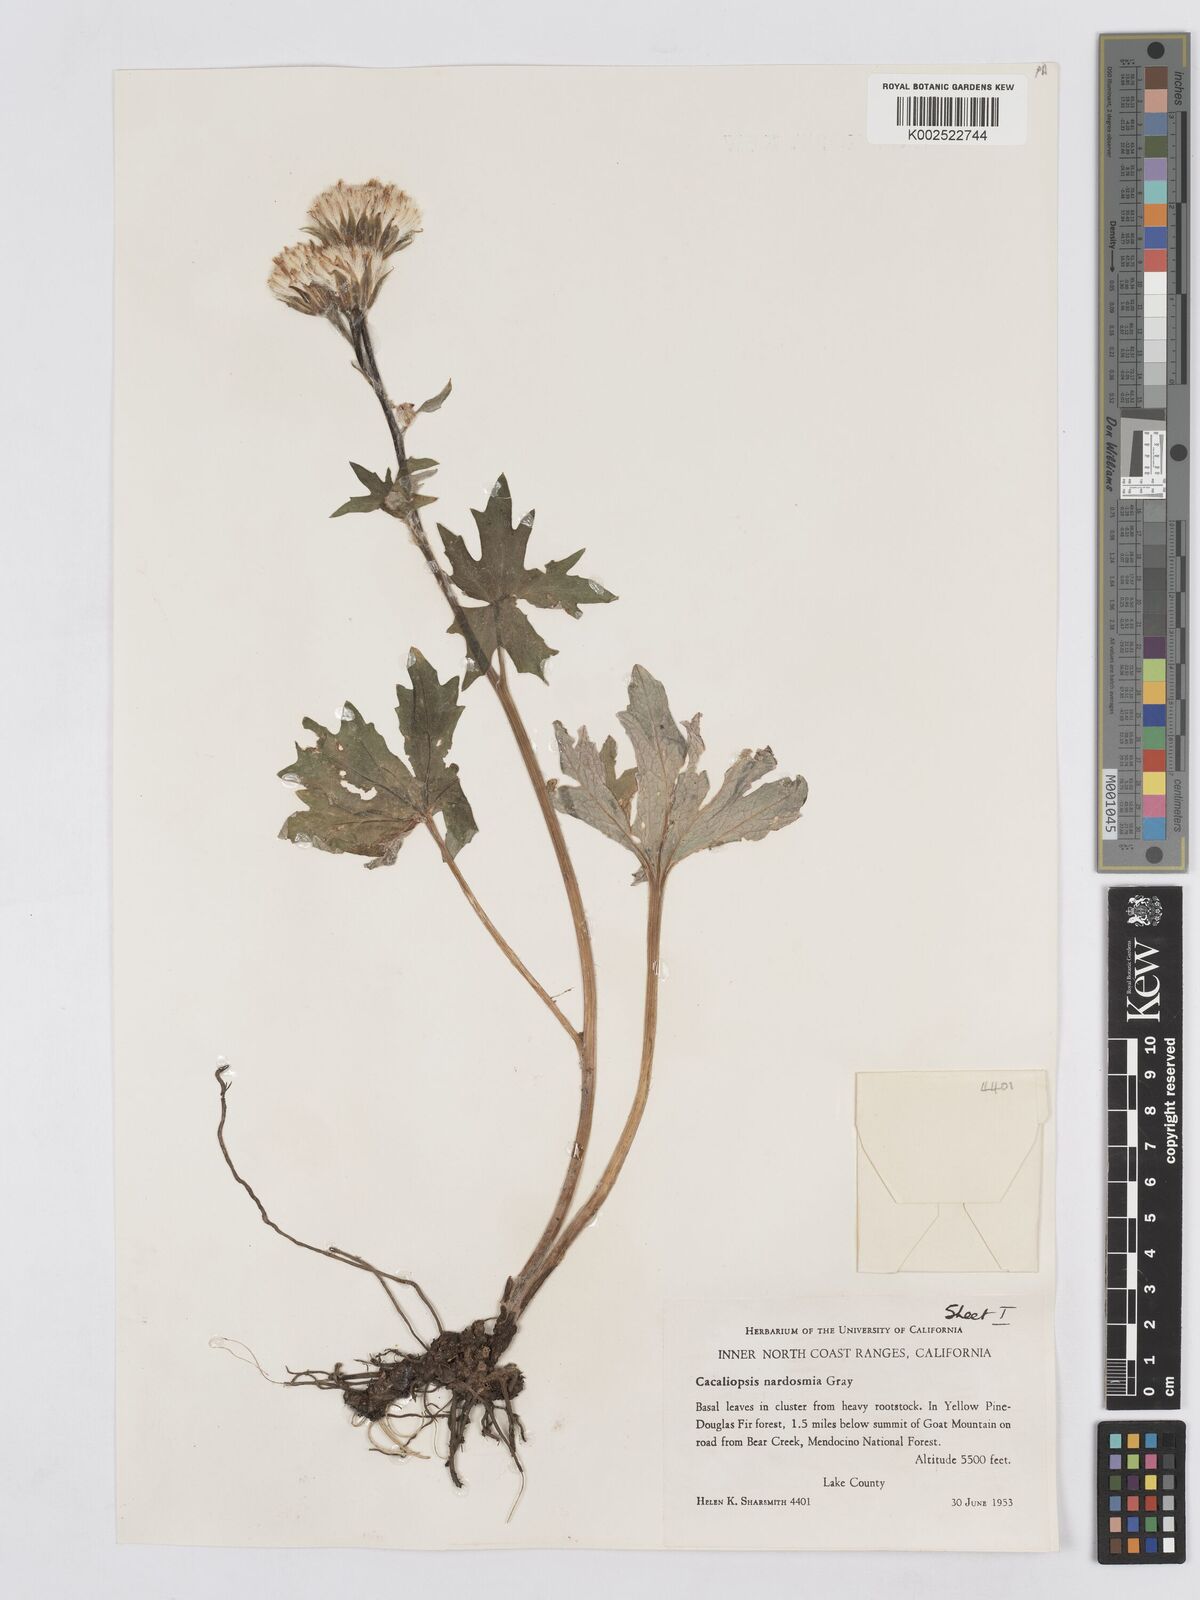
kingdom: Plantae
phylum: Tracheophyta
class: Magnoliopsida
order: Asterales
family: Asteraceae
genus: Cacaliopsis
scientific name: Cacaliopsis nardosmia
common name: Silvercrown
